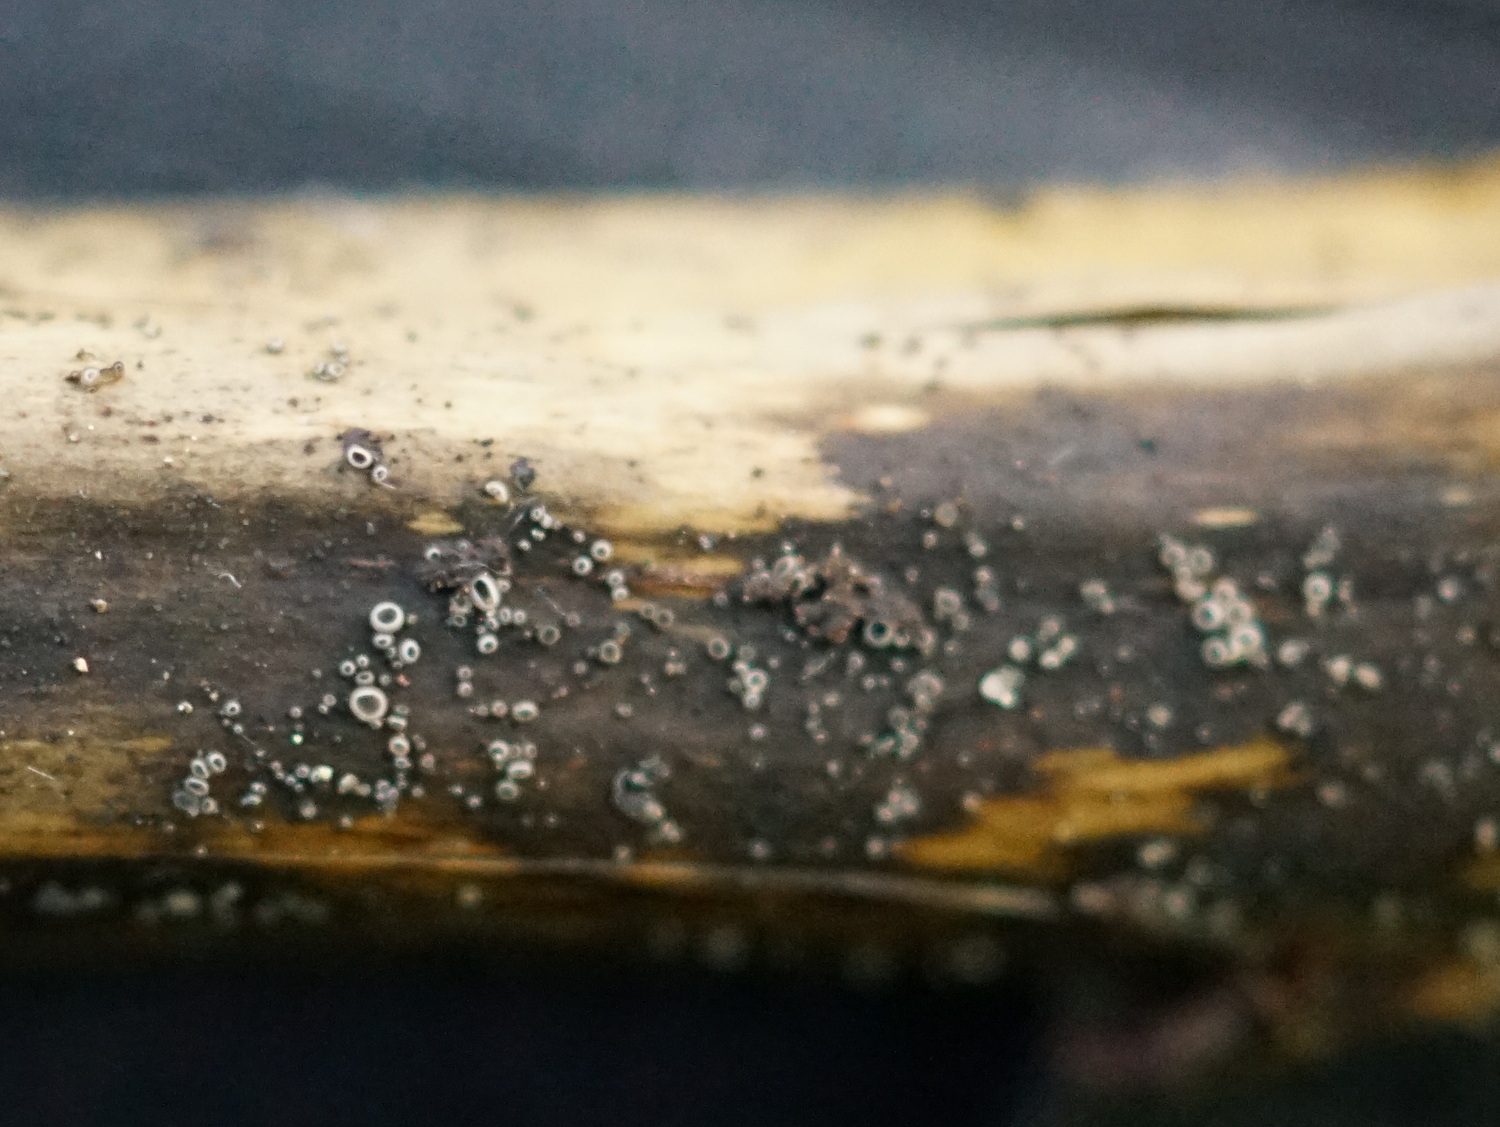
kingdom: Fungi
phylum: Ascomycota
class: Leotiomycetes
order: Helotiales
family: Ploettnerulaceae
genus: Pyrenopeziza
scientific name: Pyrenopeziza
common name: kerneskive
